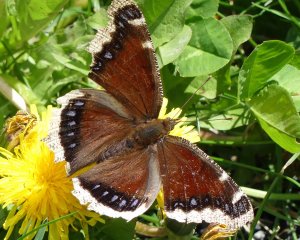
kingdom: Animalia
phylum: Arthropoda
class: Insecta
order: Lepidoptera
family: Nymphalidae
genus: Nymphalis
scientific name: Nymphalis antiopa
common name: Mourning Cloak
